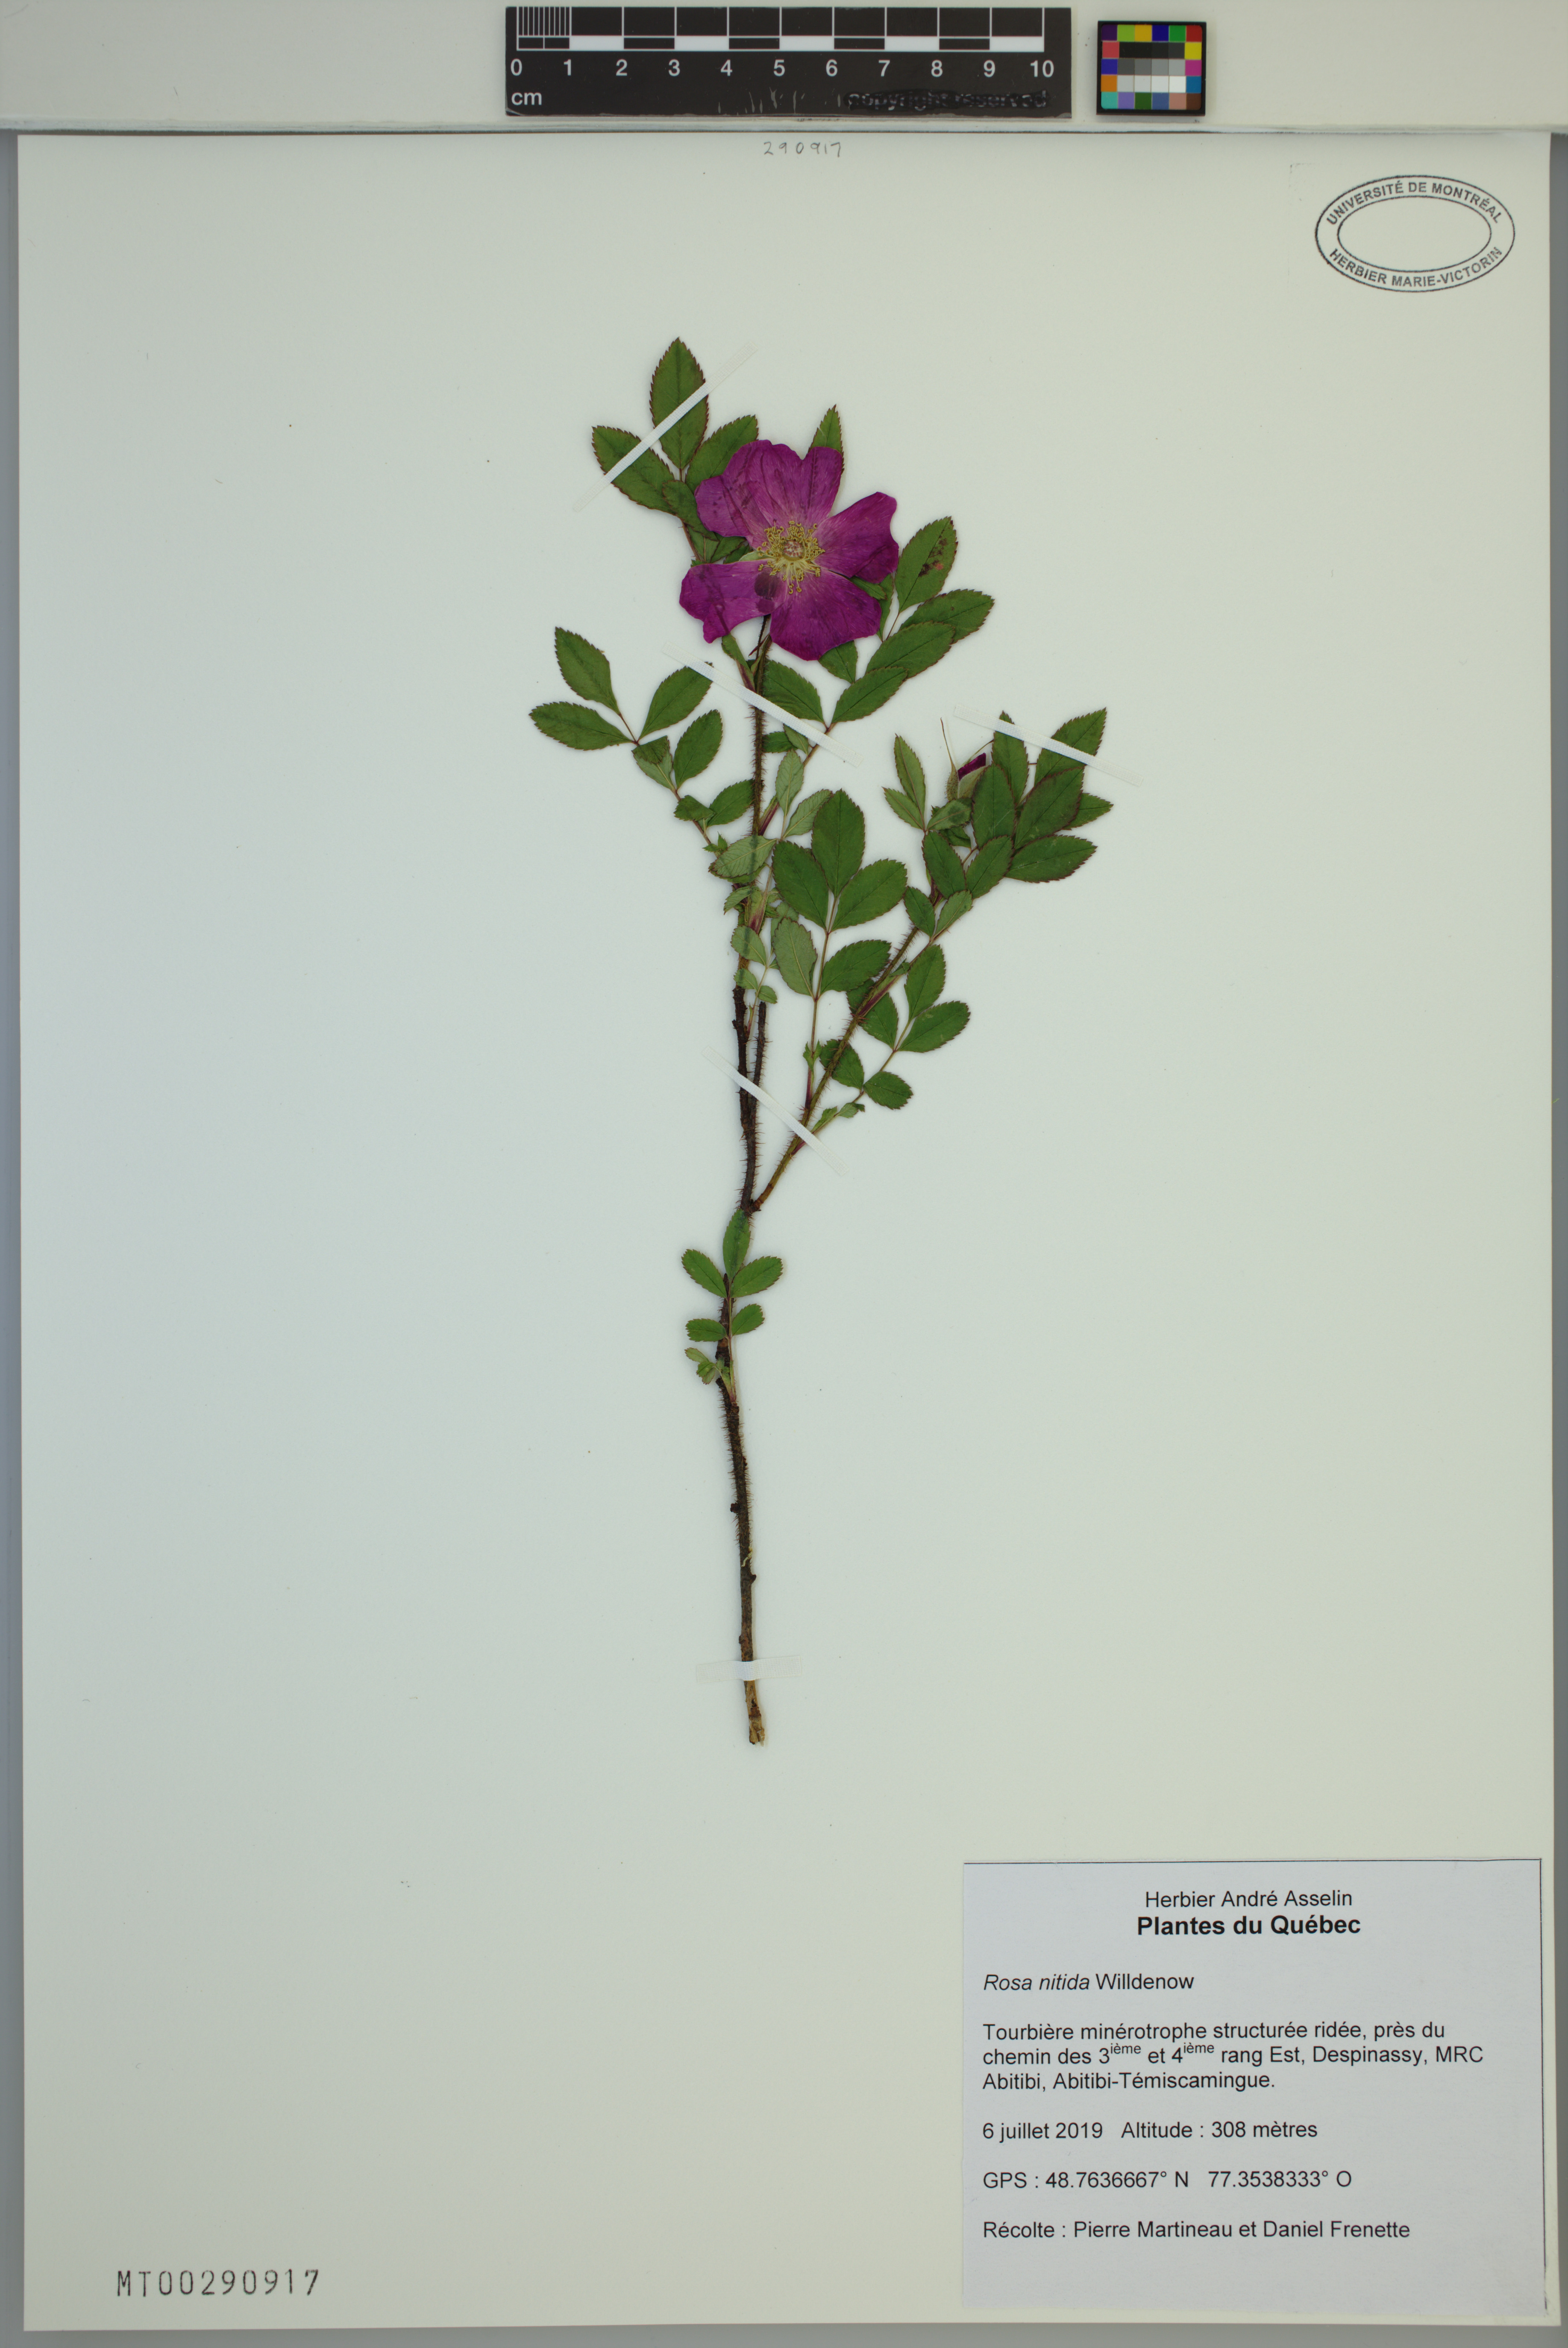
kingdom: Plantae
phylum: Tracheophyta
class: Magnoliopsida
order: Rosales
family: Rosaceae
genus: Rosa
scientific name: Rosa nitida
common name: New england rose
